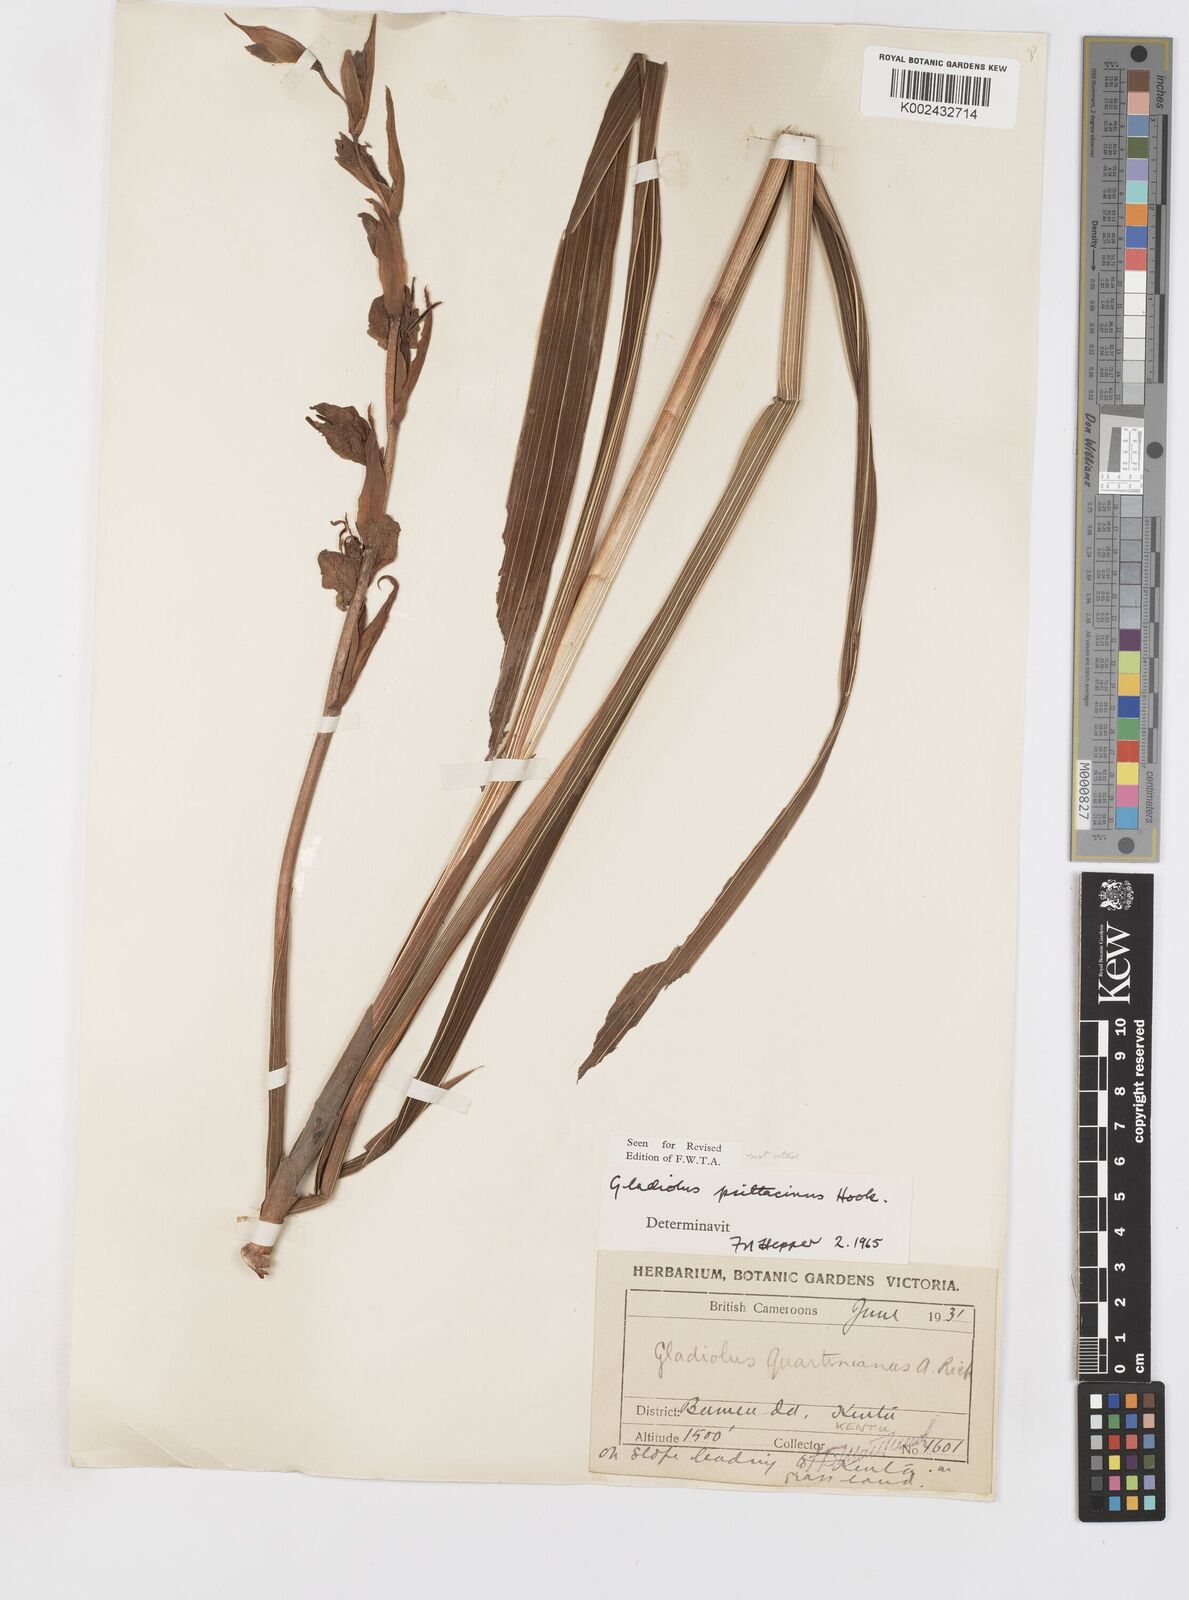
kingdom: Plantae
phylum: Tracheophyta
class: Liliopsida
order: Asparagales
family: Iridaceae
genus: Gladiolus
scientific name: Gladiolus dalenii
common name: Cornflag
